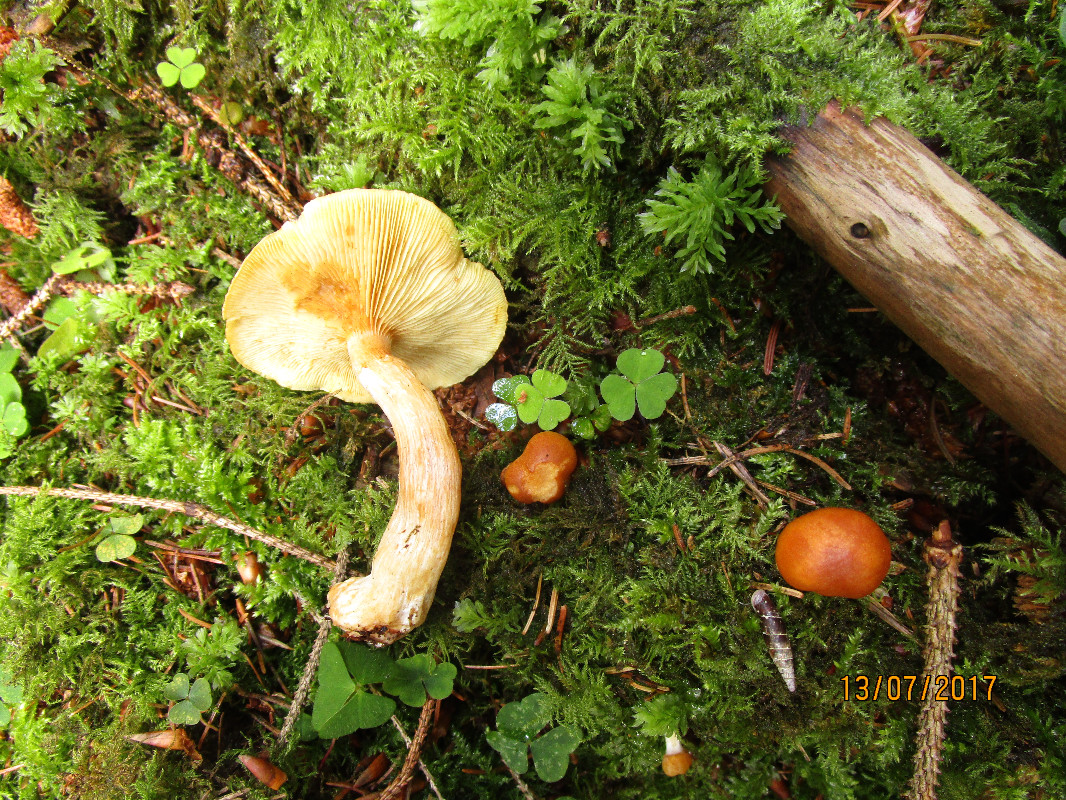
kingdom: Fungi
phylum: Basidiomycota
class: Agaricomycetes
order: Agaricales
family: Hymenogastraceae
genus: Gymnopilus
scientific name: Gymnopilus penetrans
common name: plettet flammehat
